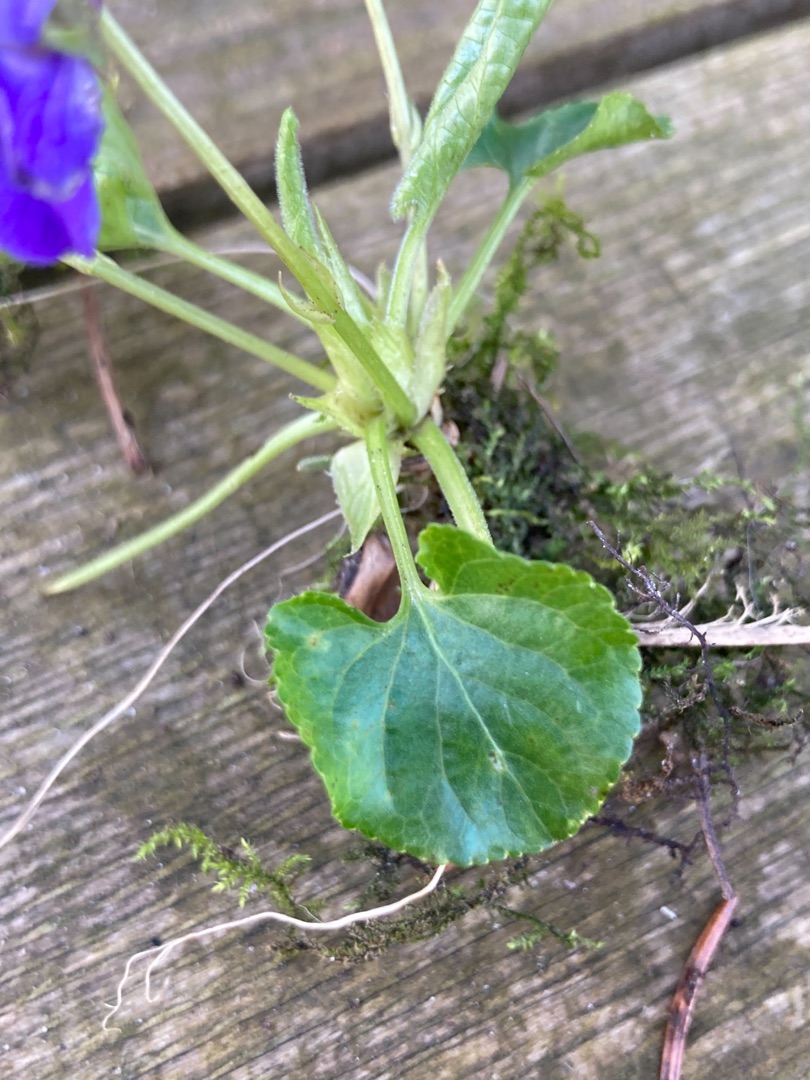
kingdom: Plantae
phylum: Tracheophyta
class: Magnoliopsida
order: Malpighiales
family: Violaceae
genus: Viola
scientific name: Viola odorata
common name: Marts-viol
